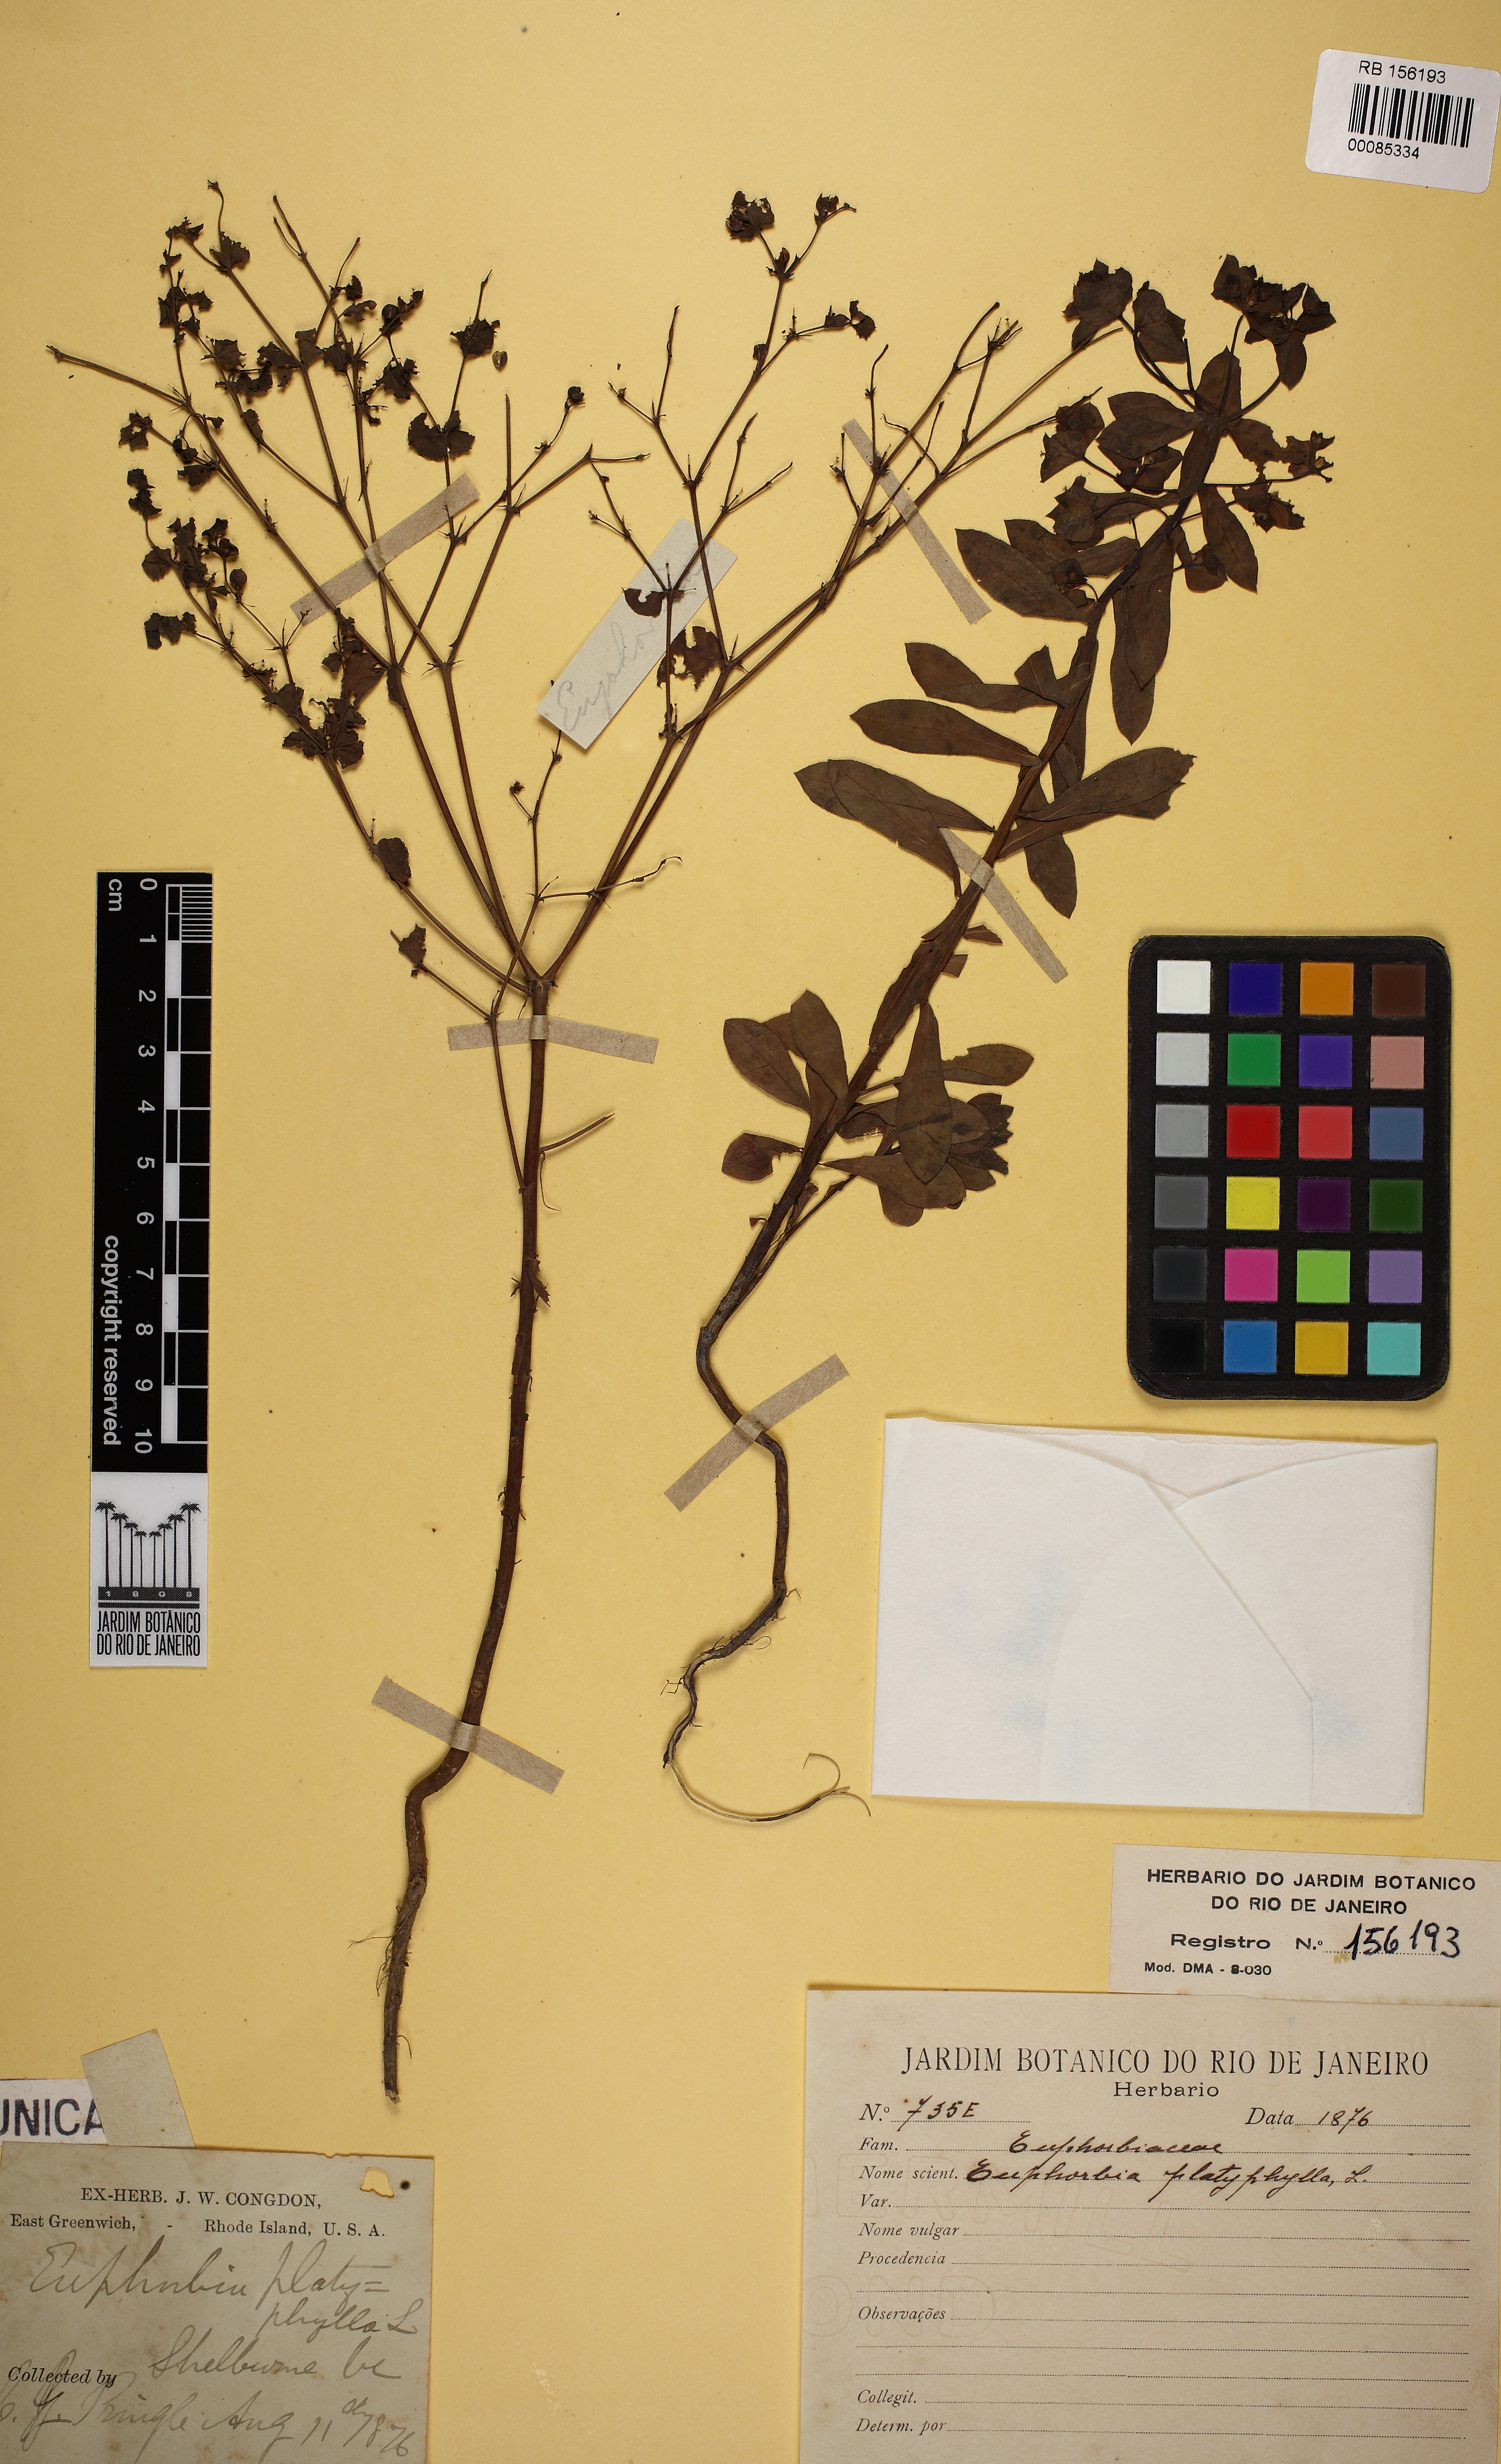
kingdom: Plantae
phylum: Tracheophyta
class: Magnoliopsida
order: Malpighiales
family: Euphorbiaceae
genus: Euphorbia
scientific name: Euphorbia platyphyllos
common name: Broad-leaved spurge
